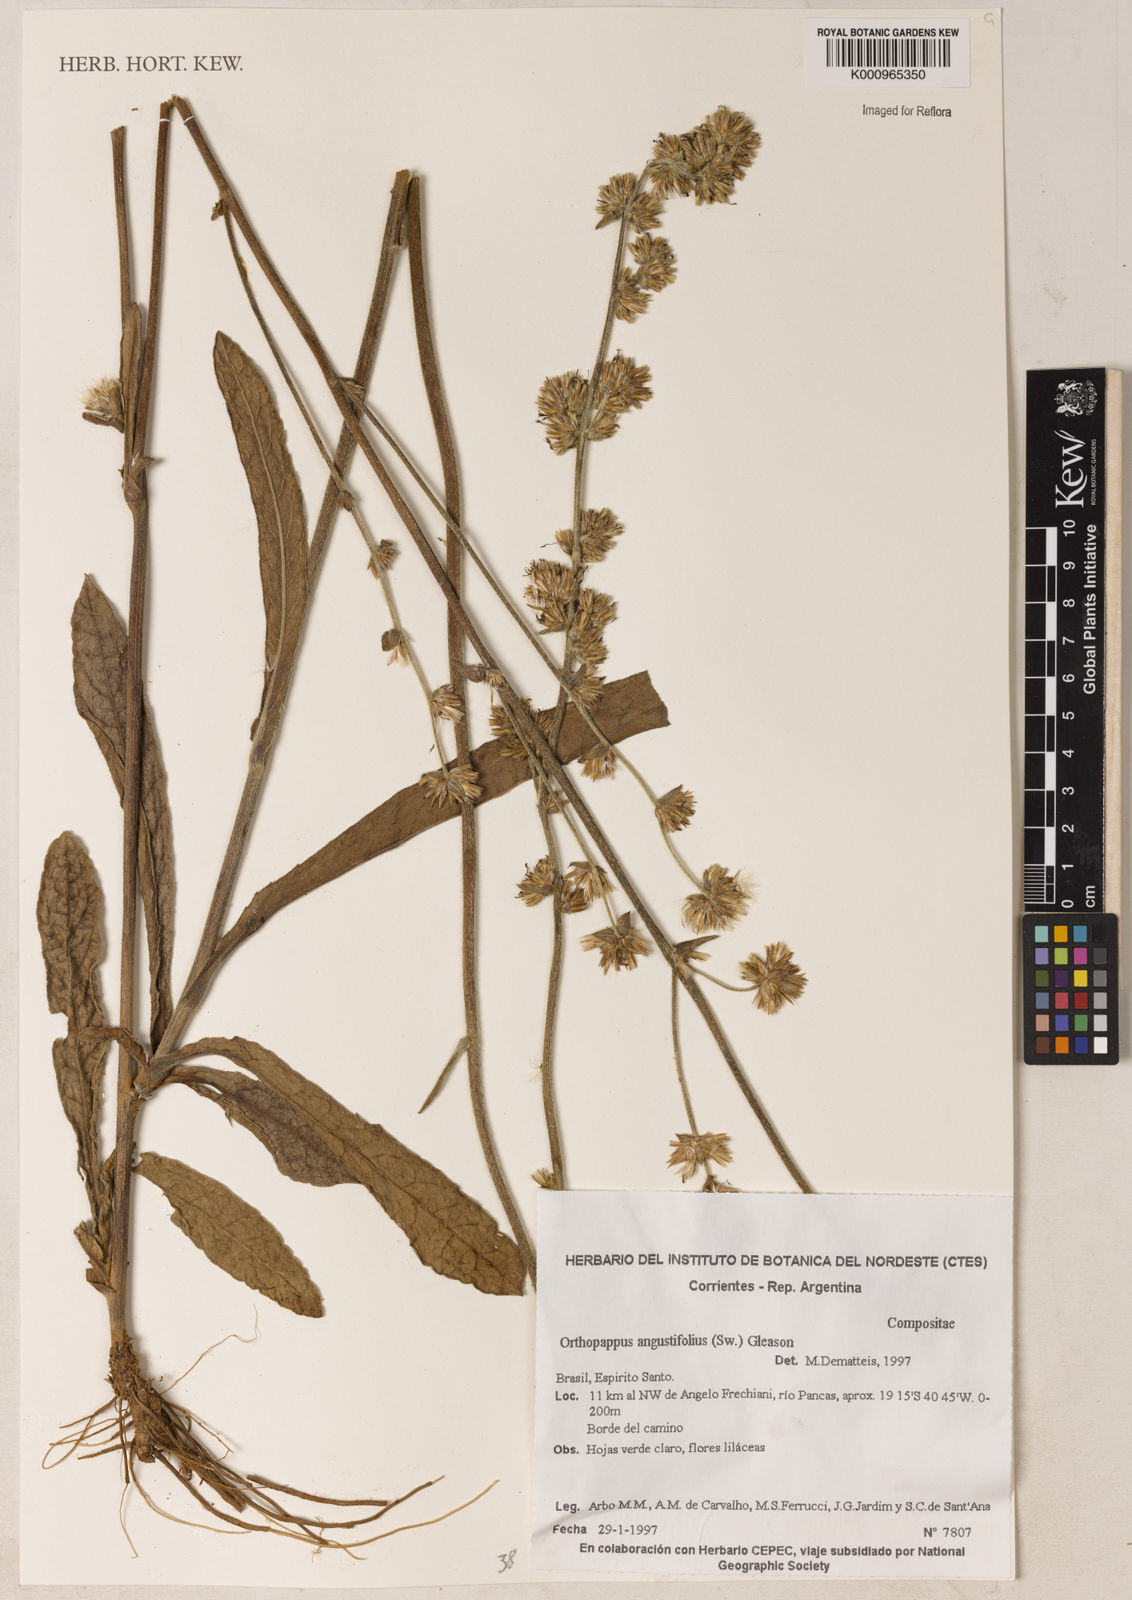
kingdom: Plantae
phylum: Tracheophyta
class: Magnoliopsida
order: Asterales
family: Asteraceae
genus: Orthopappus
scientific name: Orthopappus angustifolius
